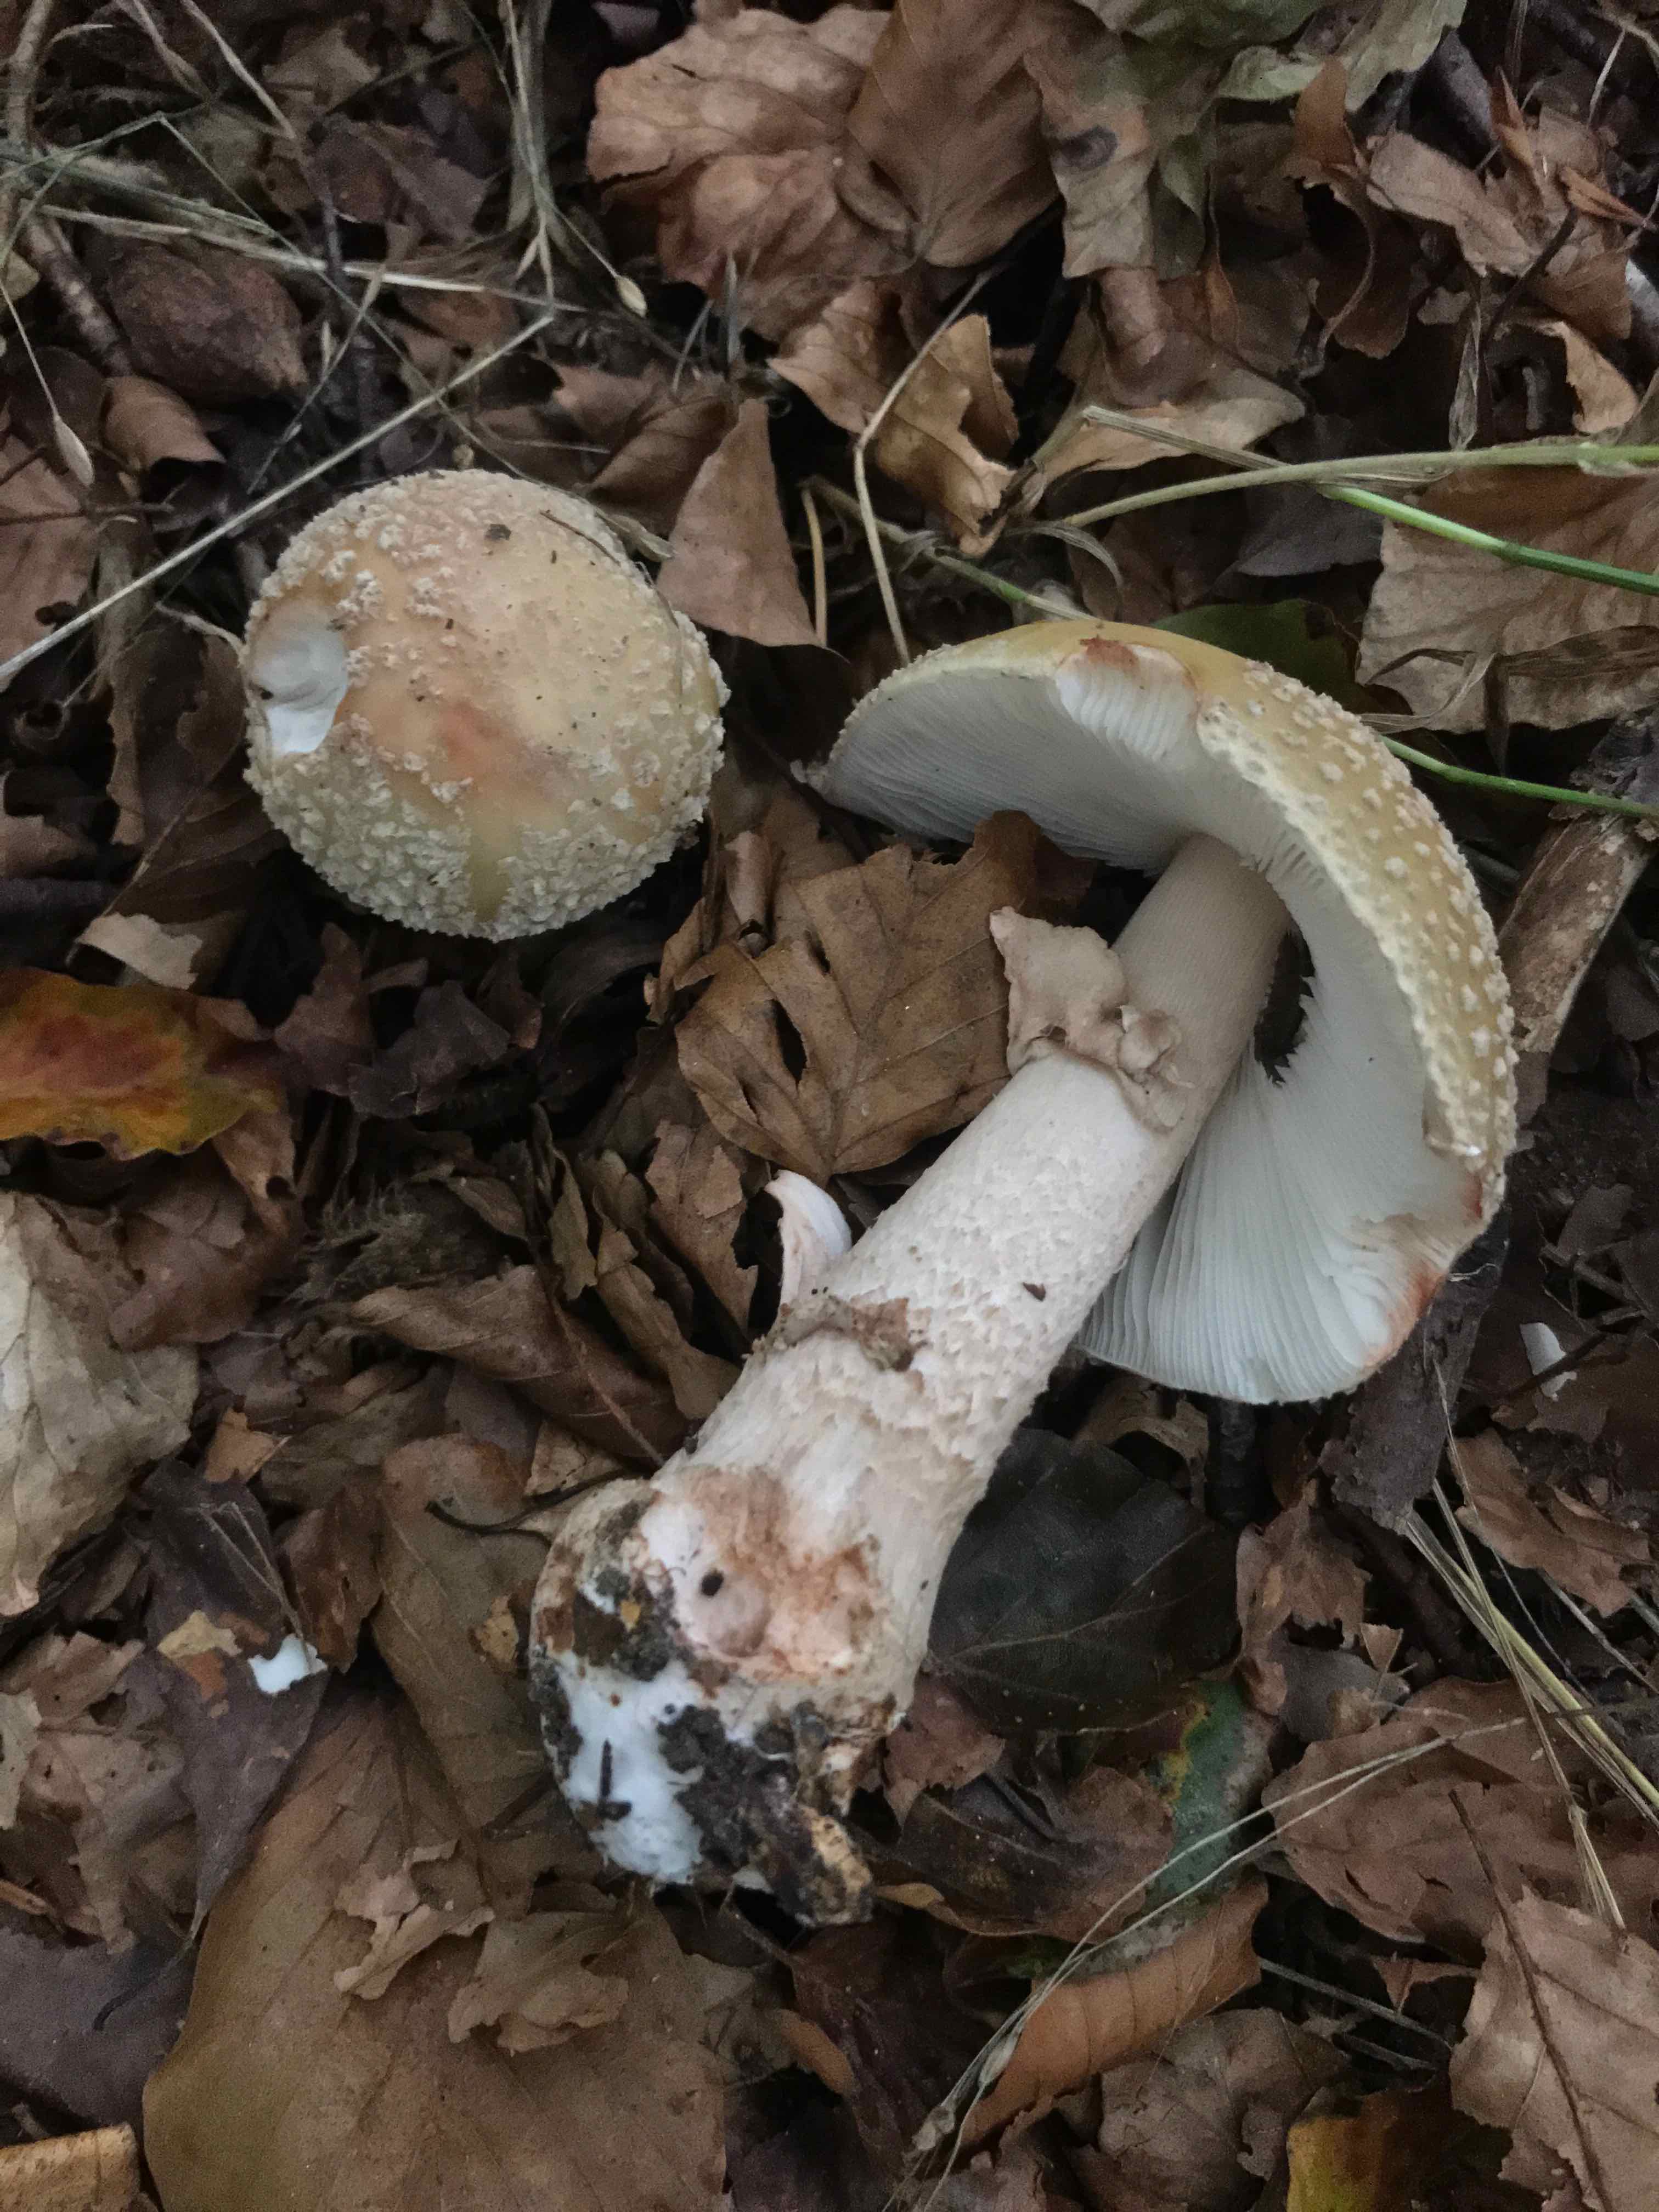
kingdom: Fungi
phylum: Basidiomycota
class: Agaricomycetes
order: Agaricales
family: Amanitaceae
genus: Amanita
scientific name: Amanita rubescens
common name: rødmende fluesvamp
